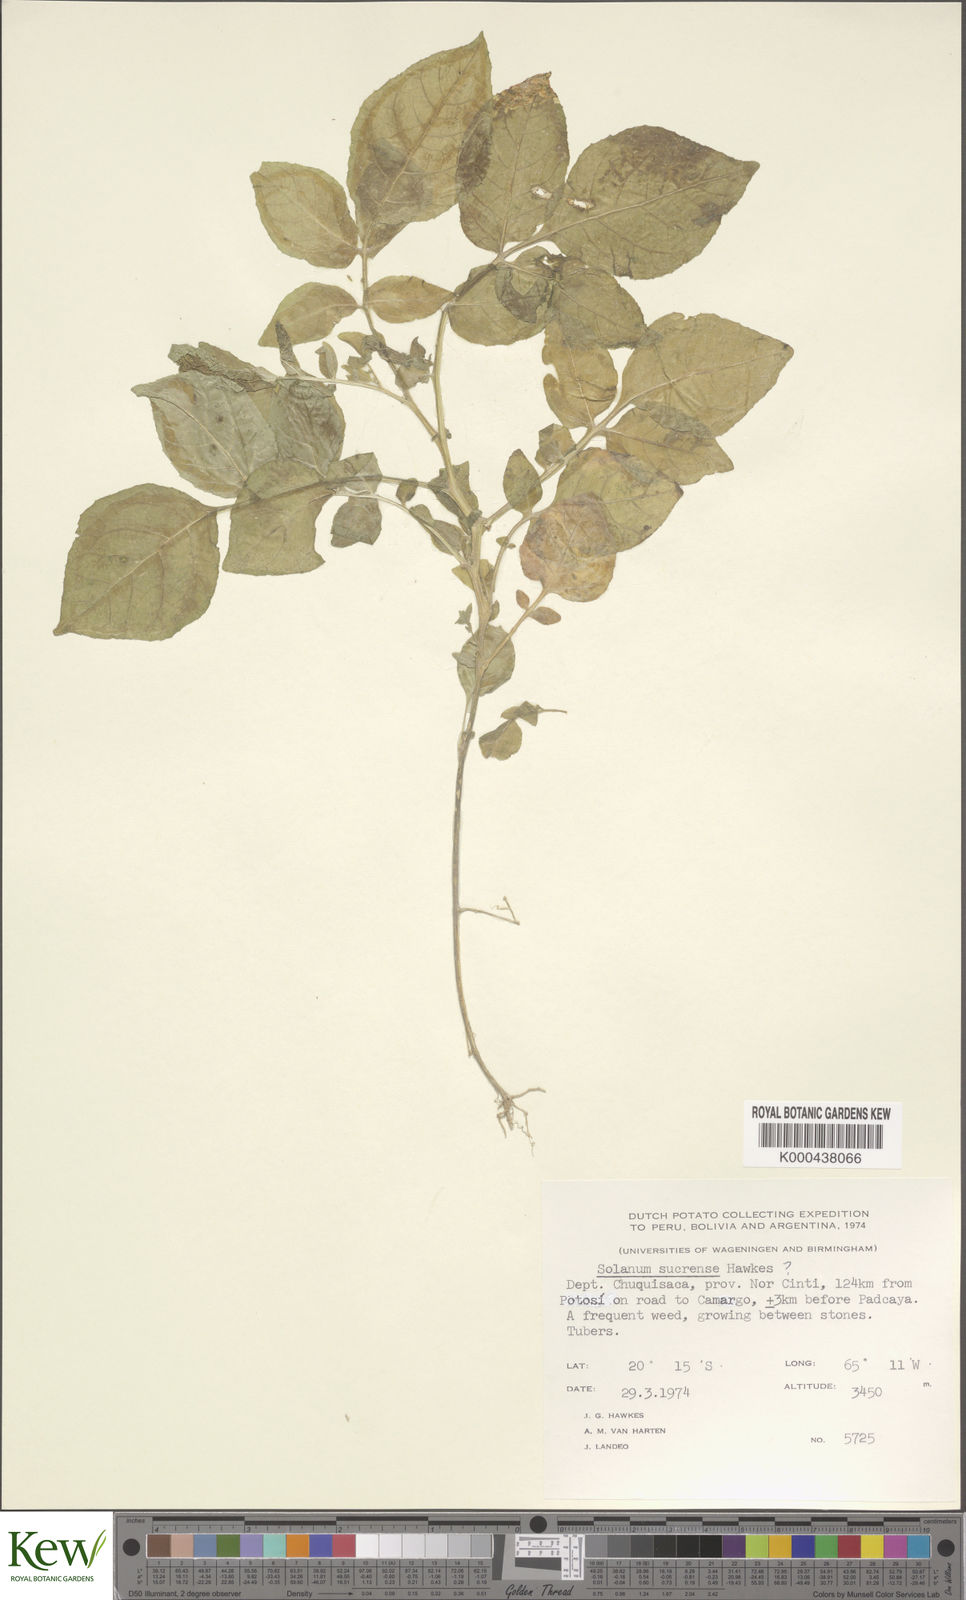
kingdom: Plantae
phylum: Tracheophyta
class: Magnoliopsida
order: Solanales
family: Solanaceae
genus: Solanum
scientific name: Solanum brevicaule
